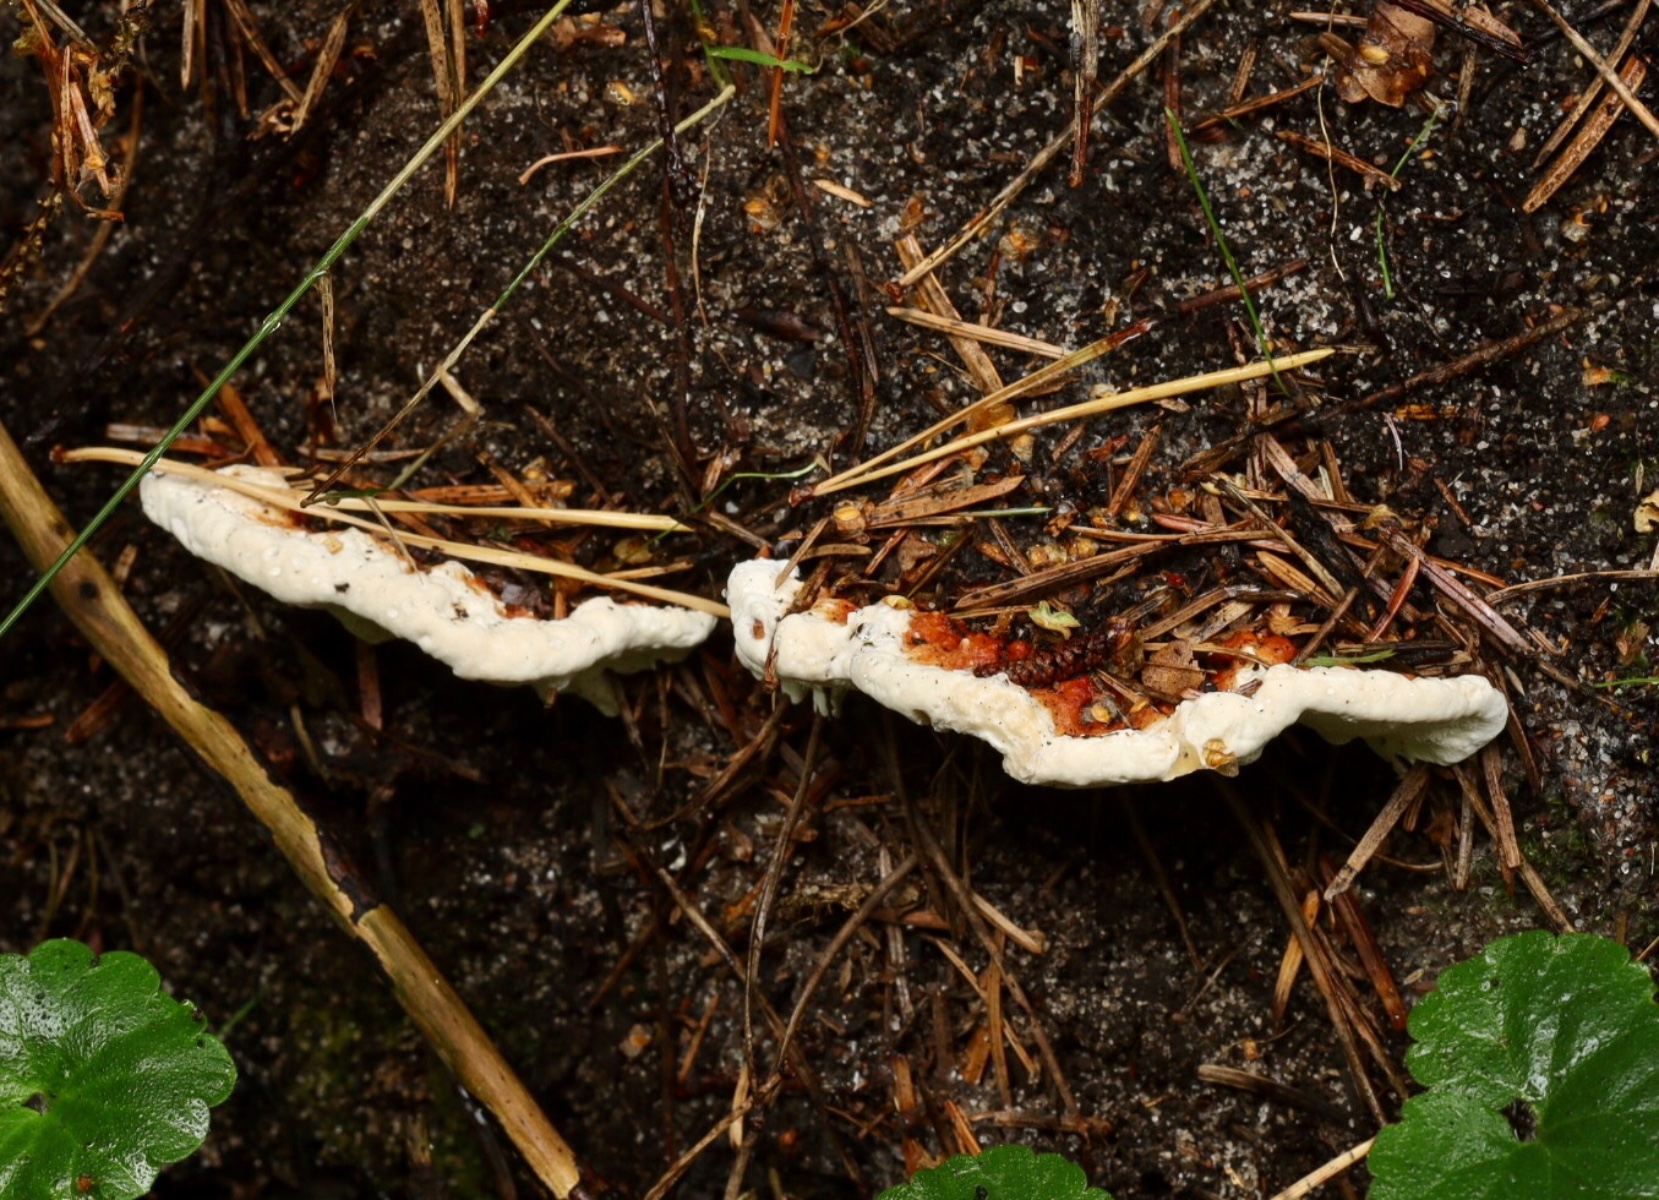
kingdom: Fungi
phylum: Basidiomycota
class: Agaricomycetes
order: Russulales
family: Bondarzewiaceae
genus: Heterobasidion
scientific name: Heterobasidion annosum
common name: almindelig rodfordærver
